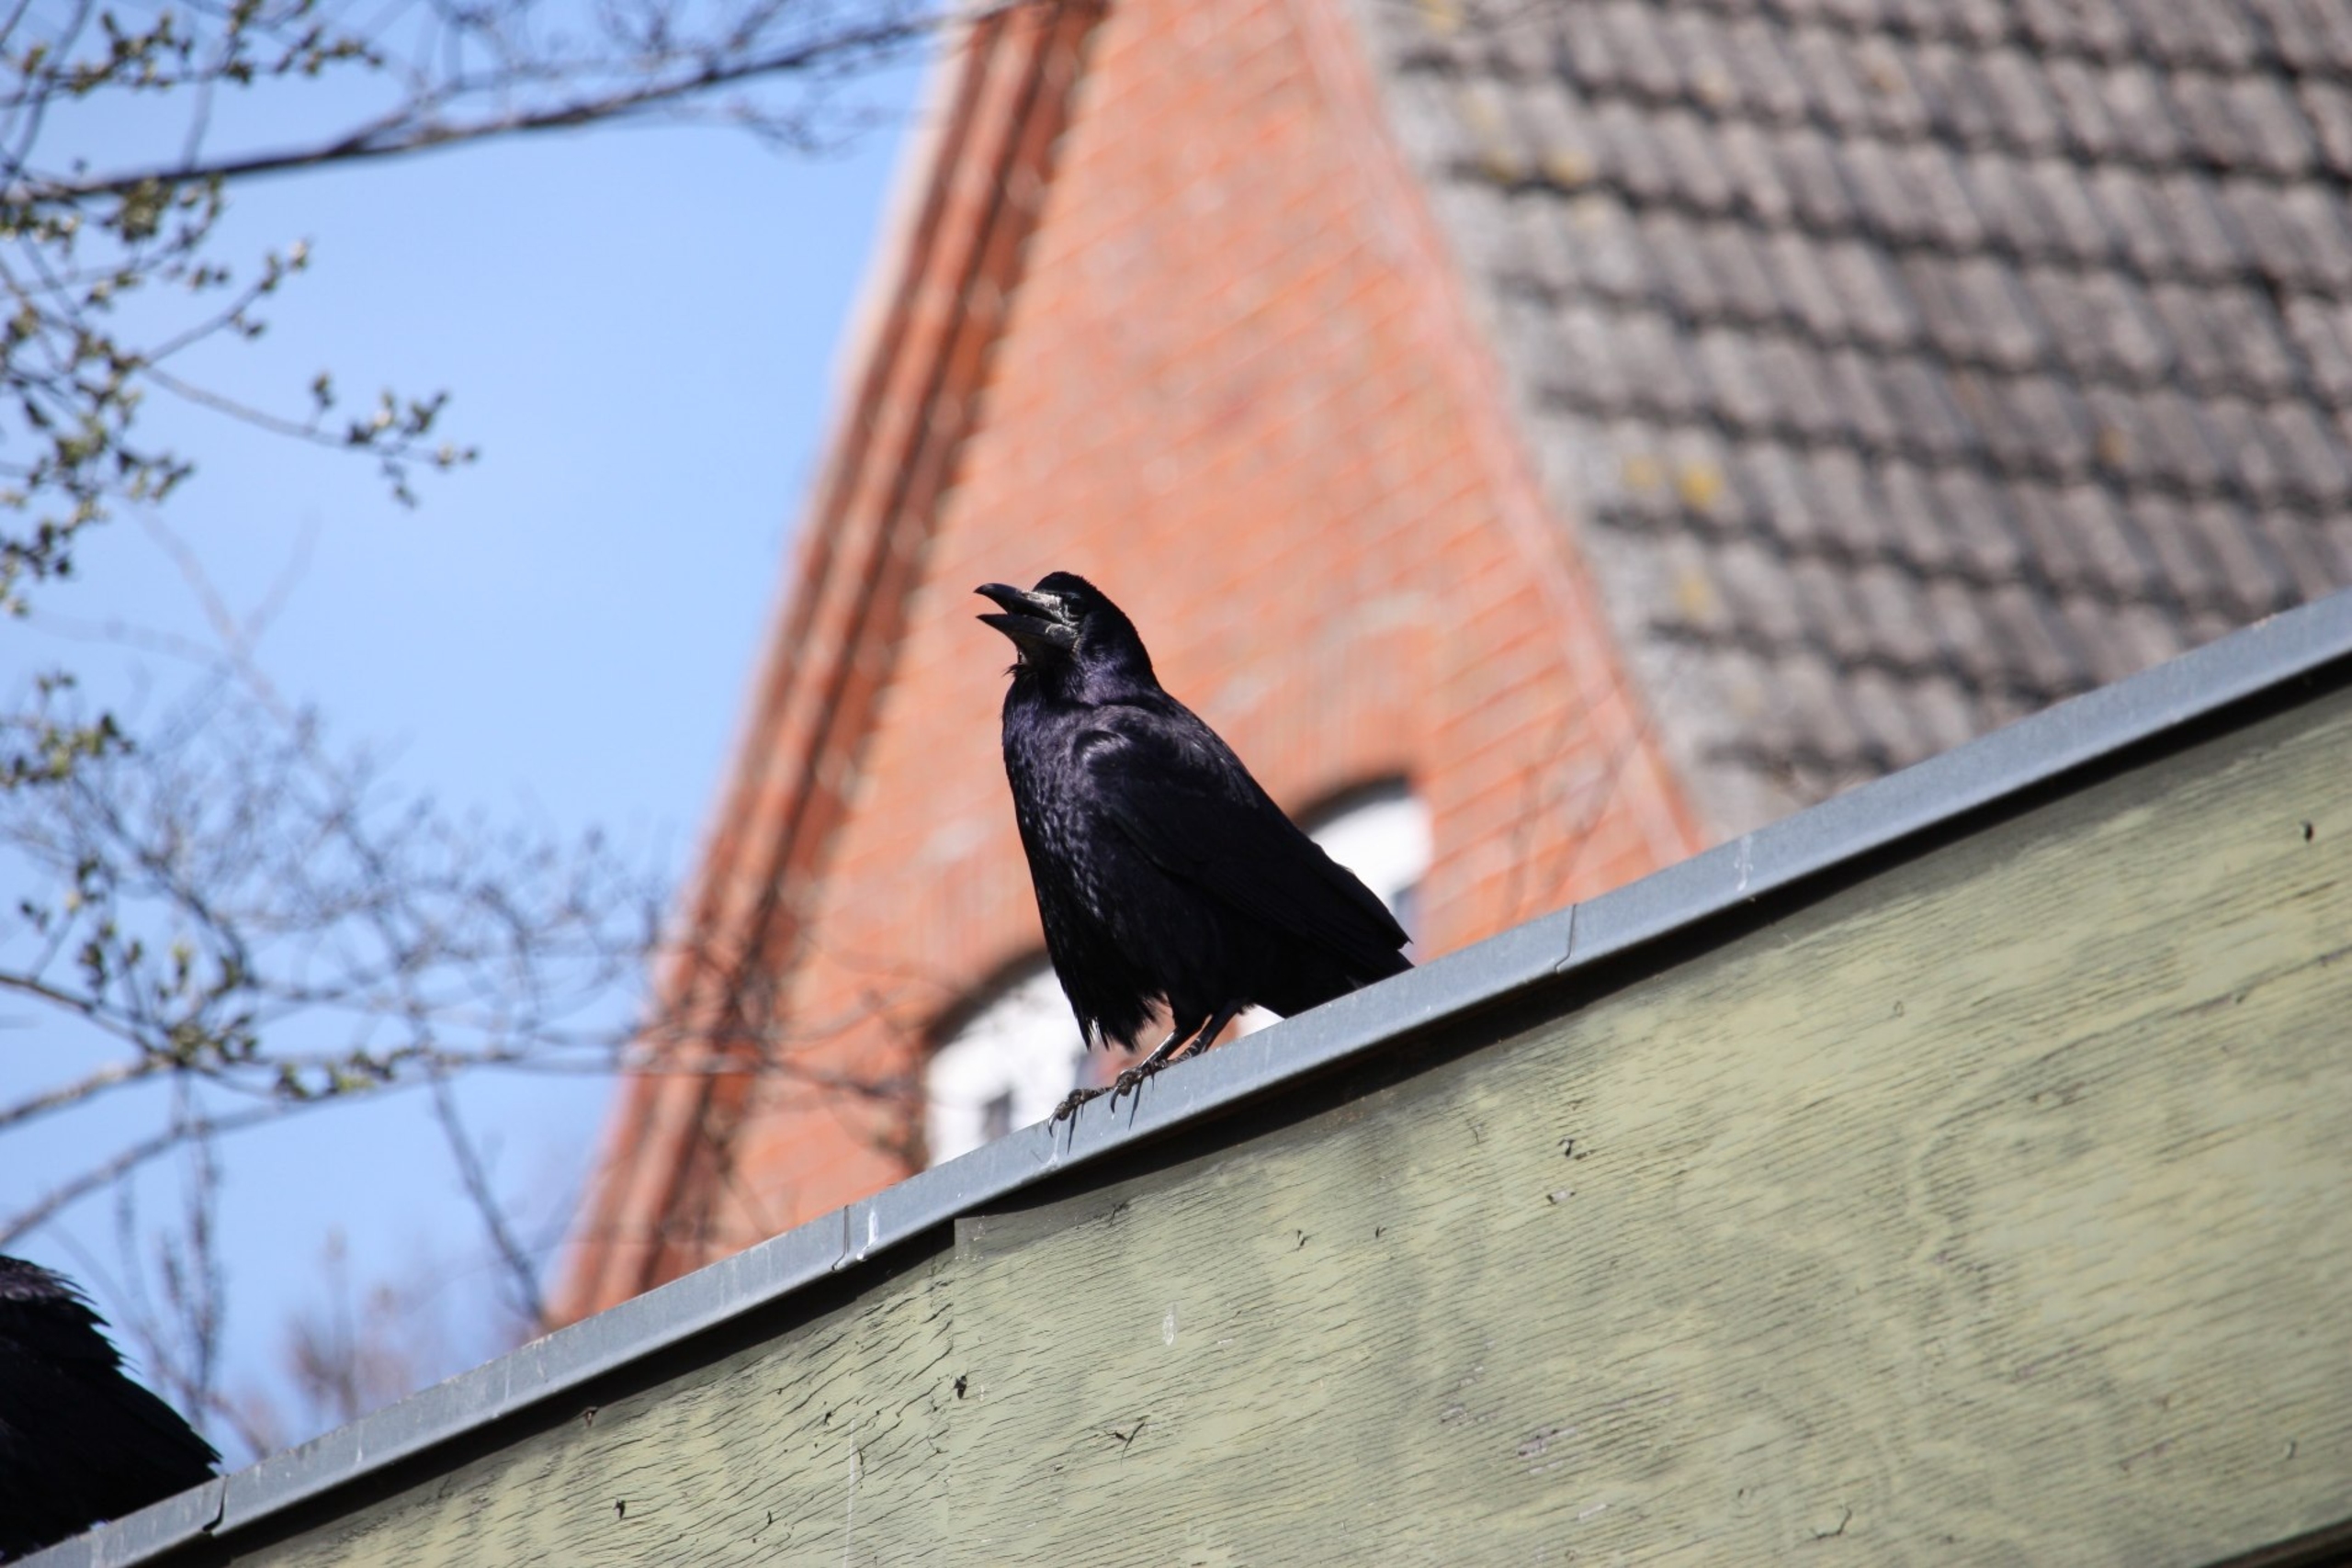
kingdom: Animalia
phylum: Chordata
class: Aves
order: Passeriformes
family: Corvidae
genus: Corvus
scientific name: Corvus frugilegus
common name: Råge
